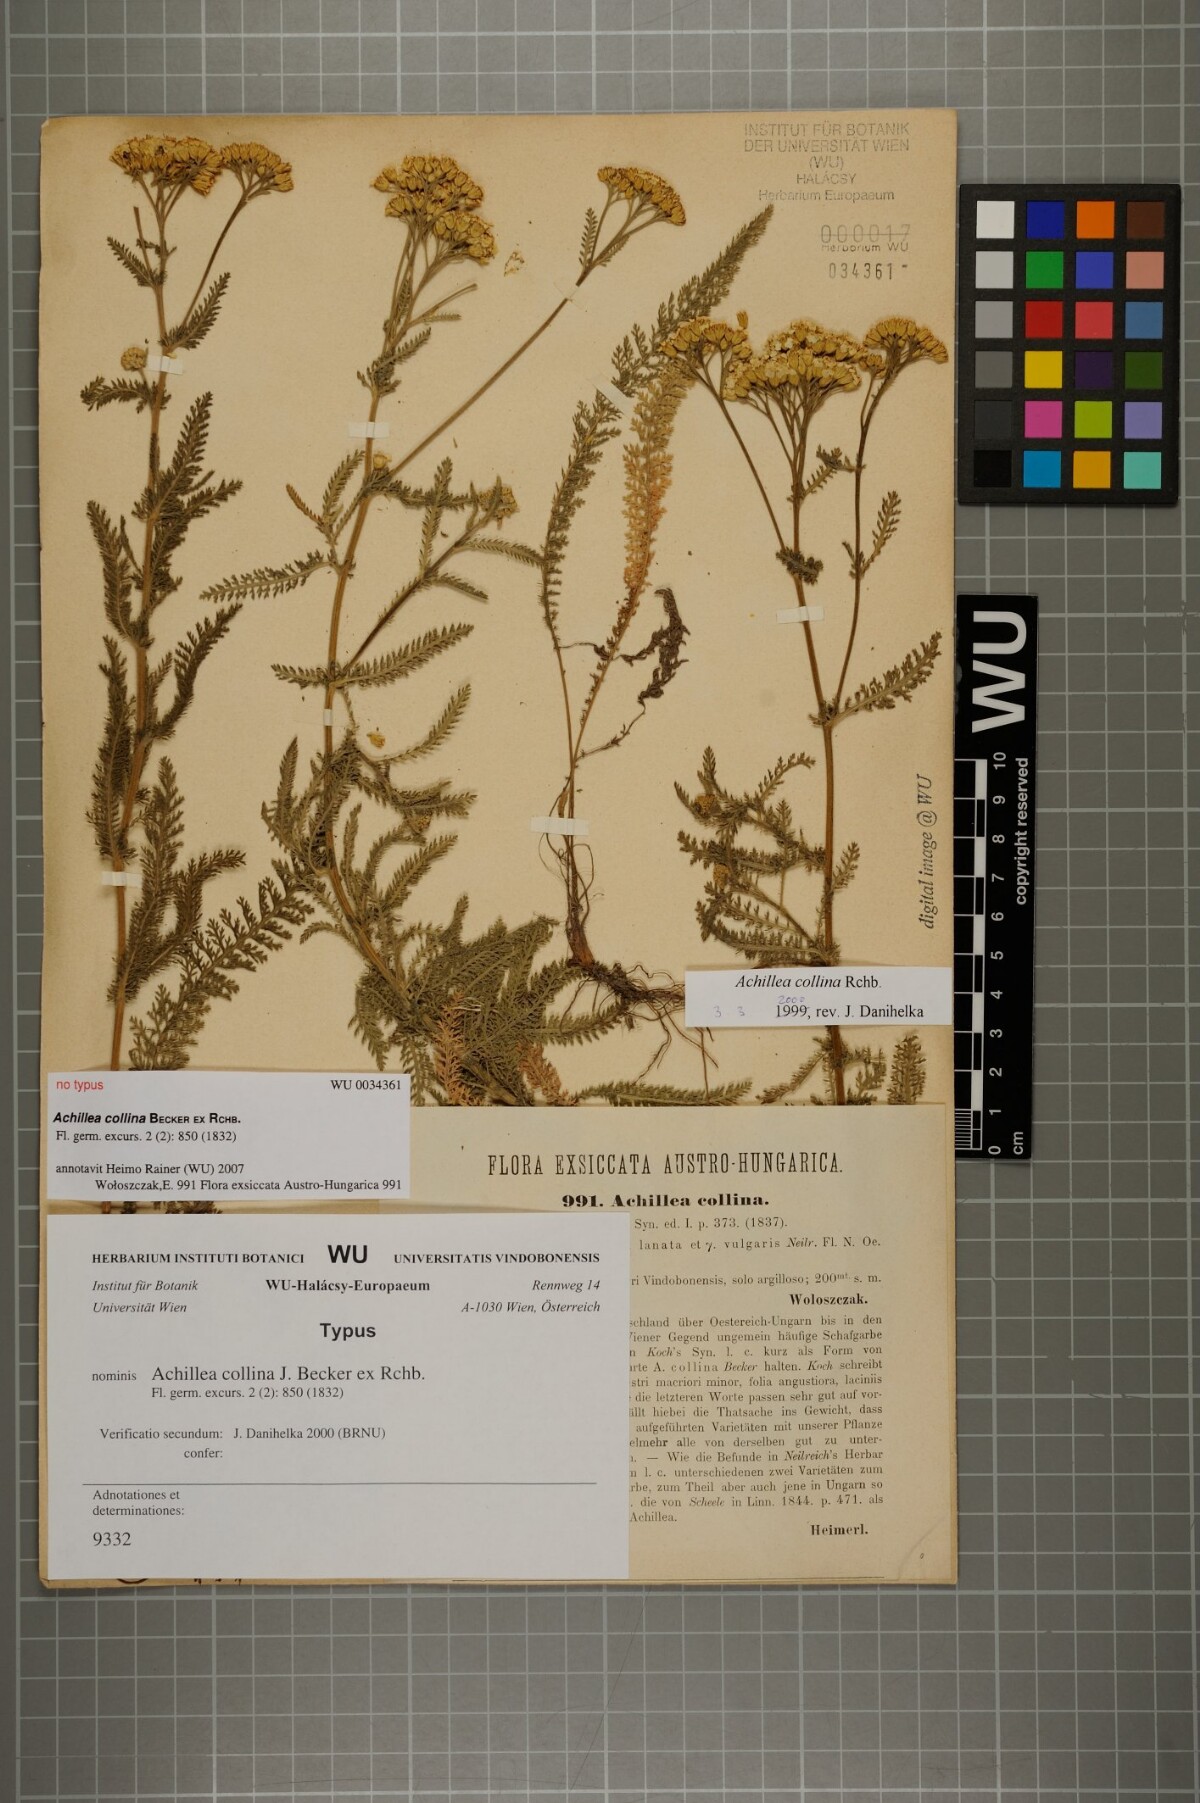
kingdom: Plantae
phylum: Tracheophyta
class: Magnoliopsida
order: Asterales
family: Asteraceae
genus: Achillea
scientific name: Achillea collina
